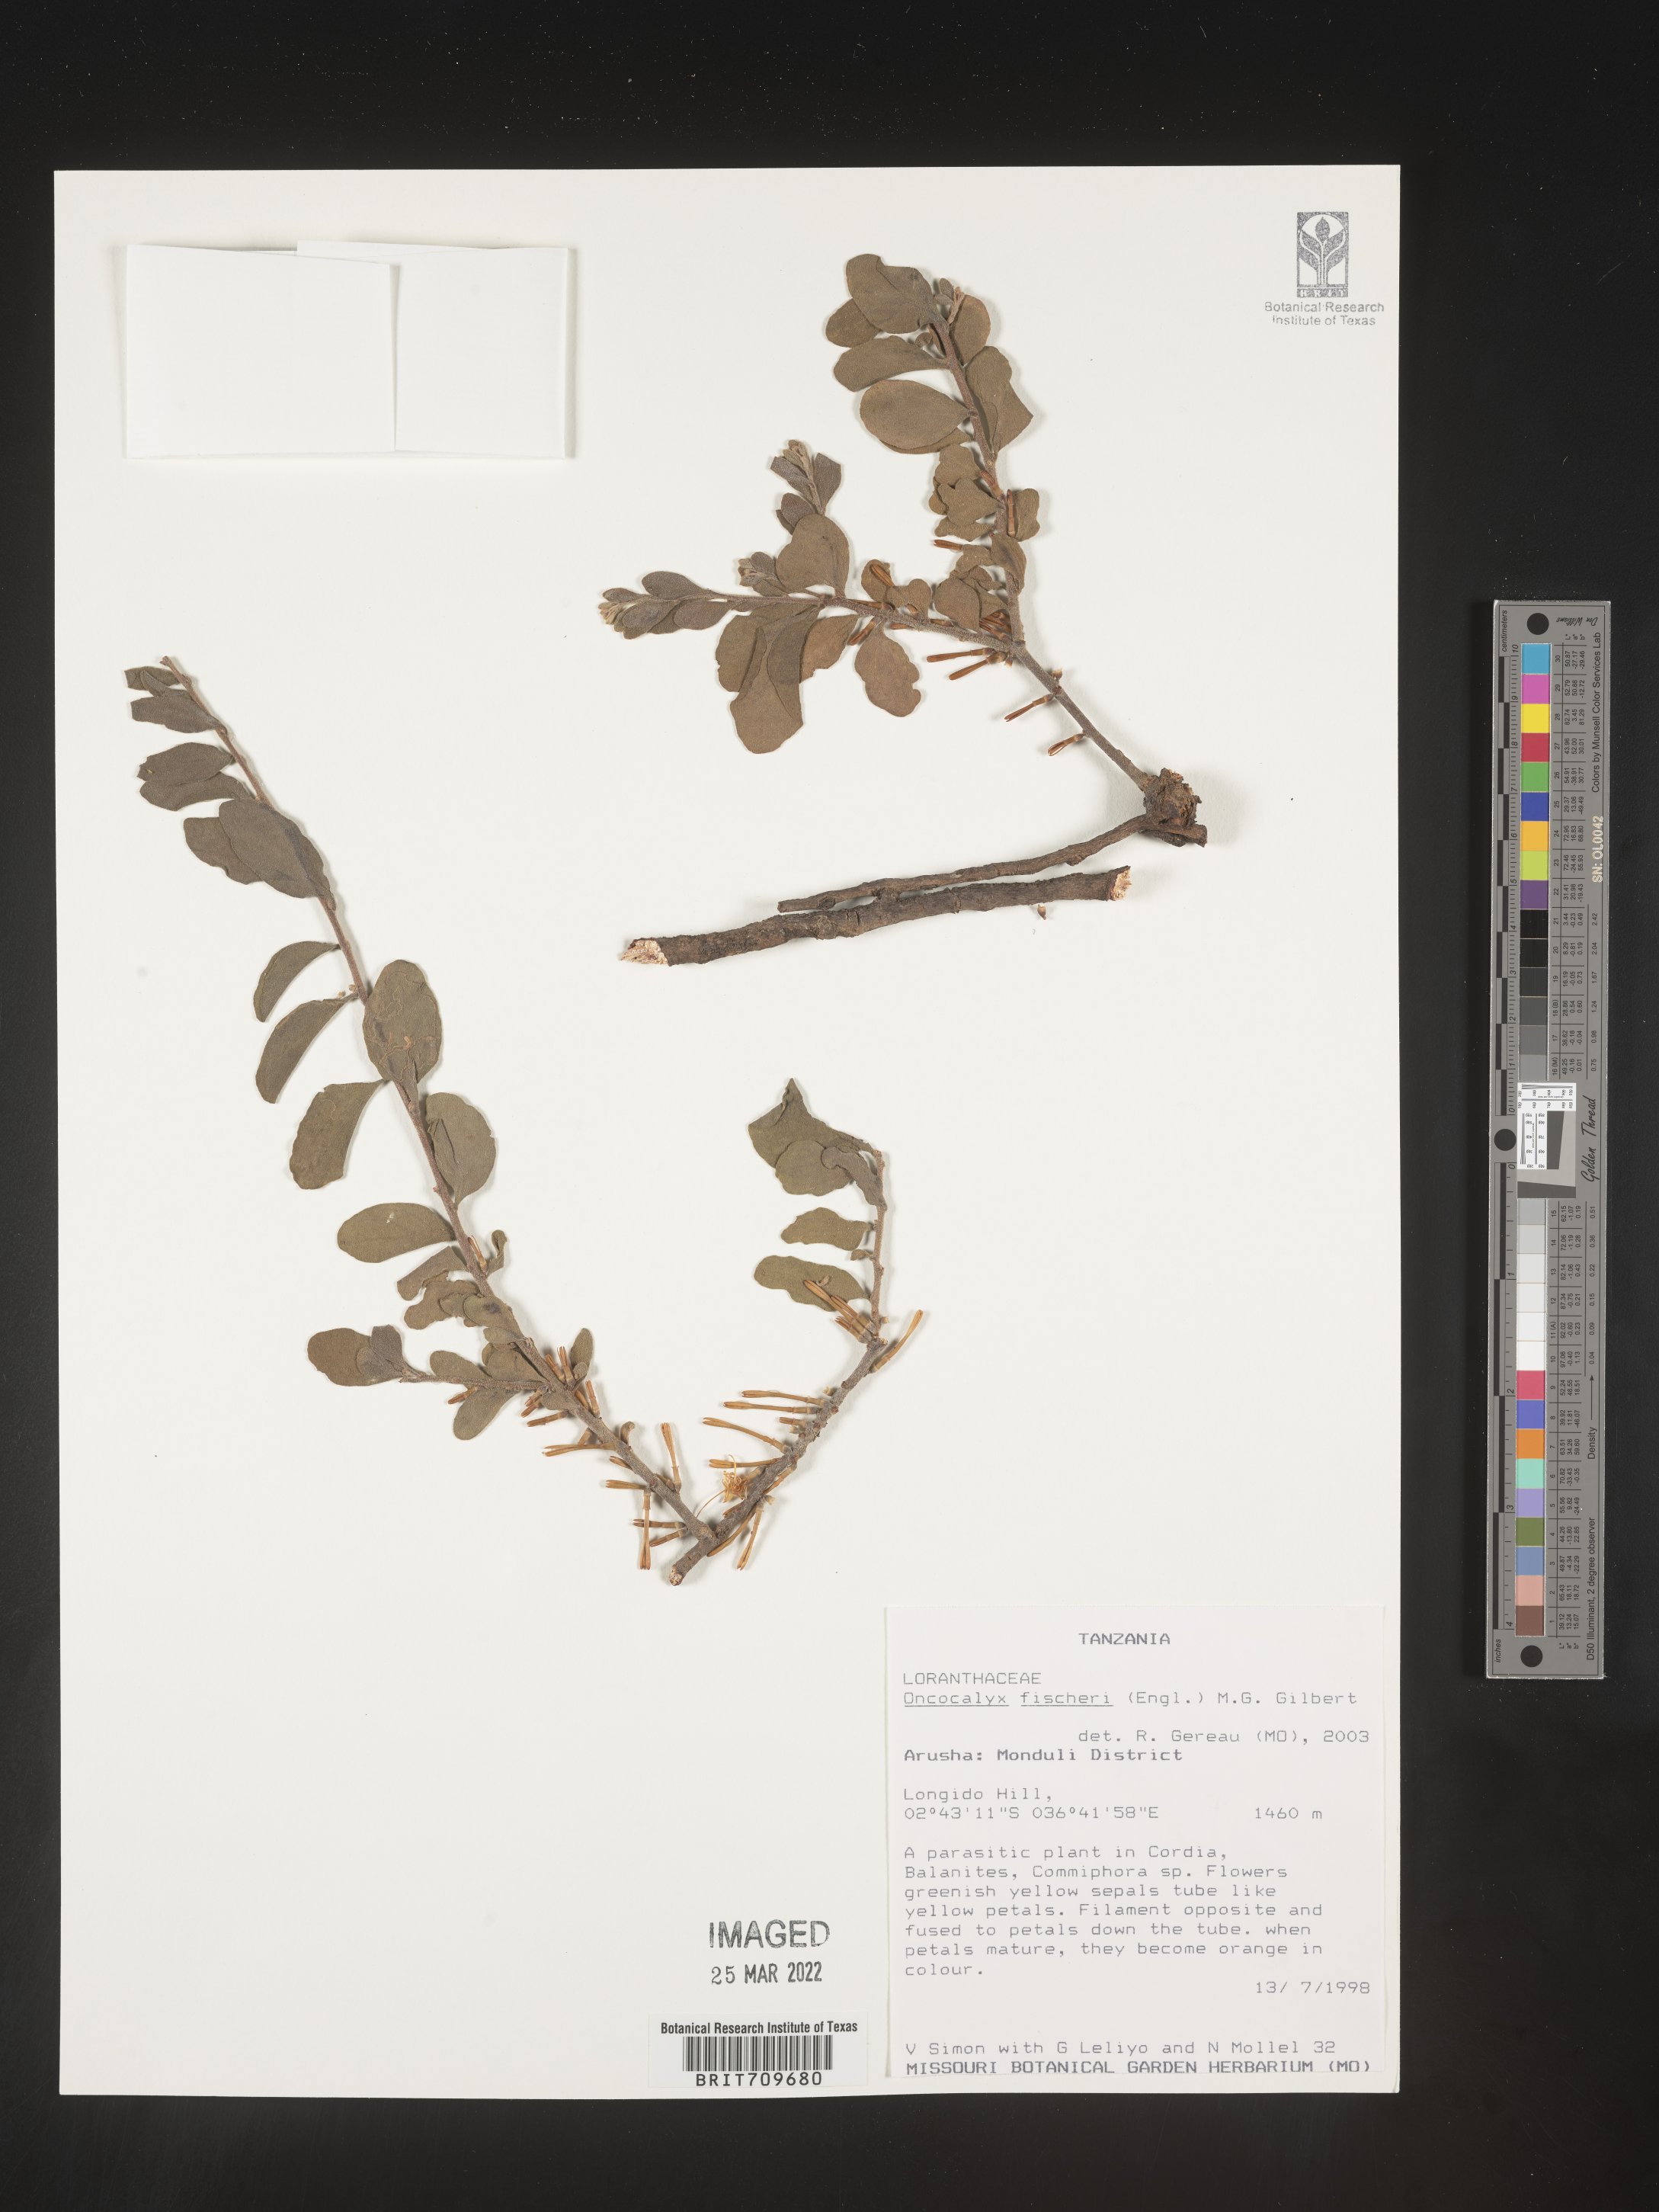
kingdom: Plantae
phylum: Tracheophyta
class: Magnoliopsida
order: Santalales
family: Loranthaceae
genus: Oncocalyx
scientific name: Oncocalyx
